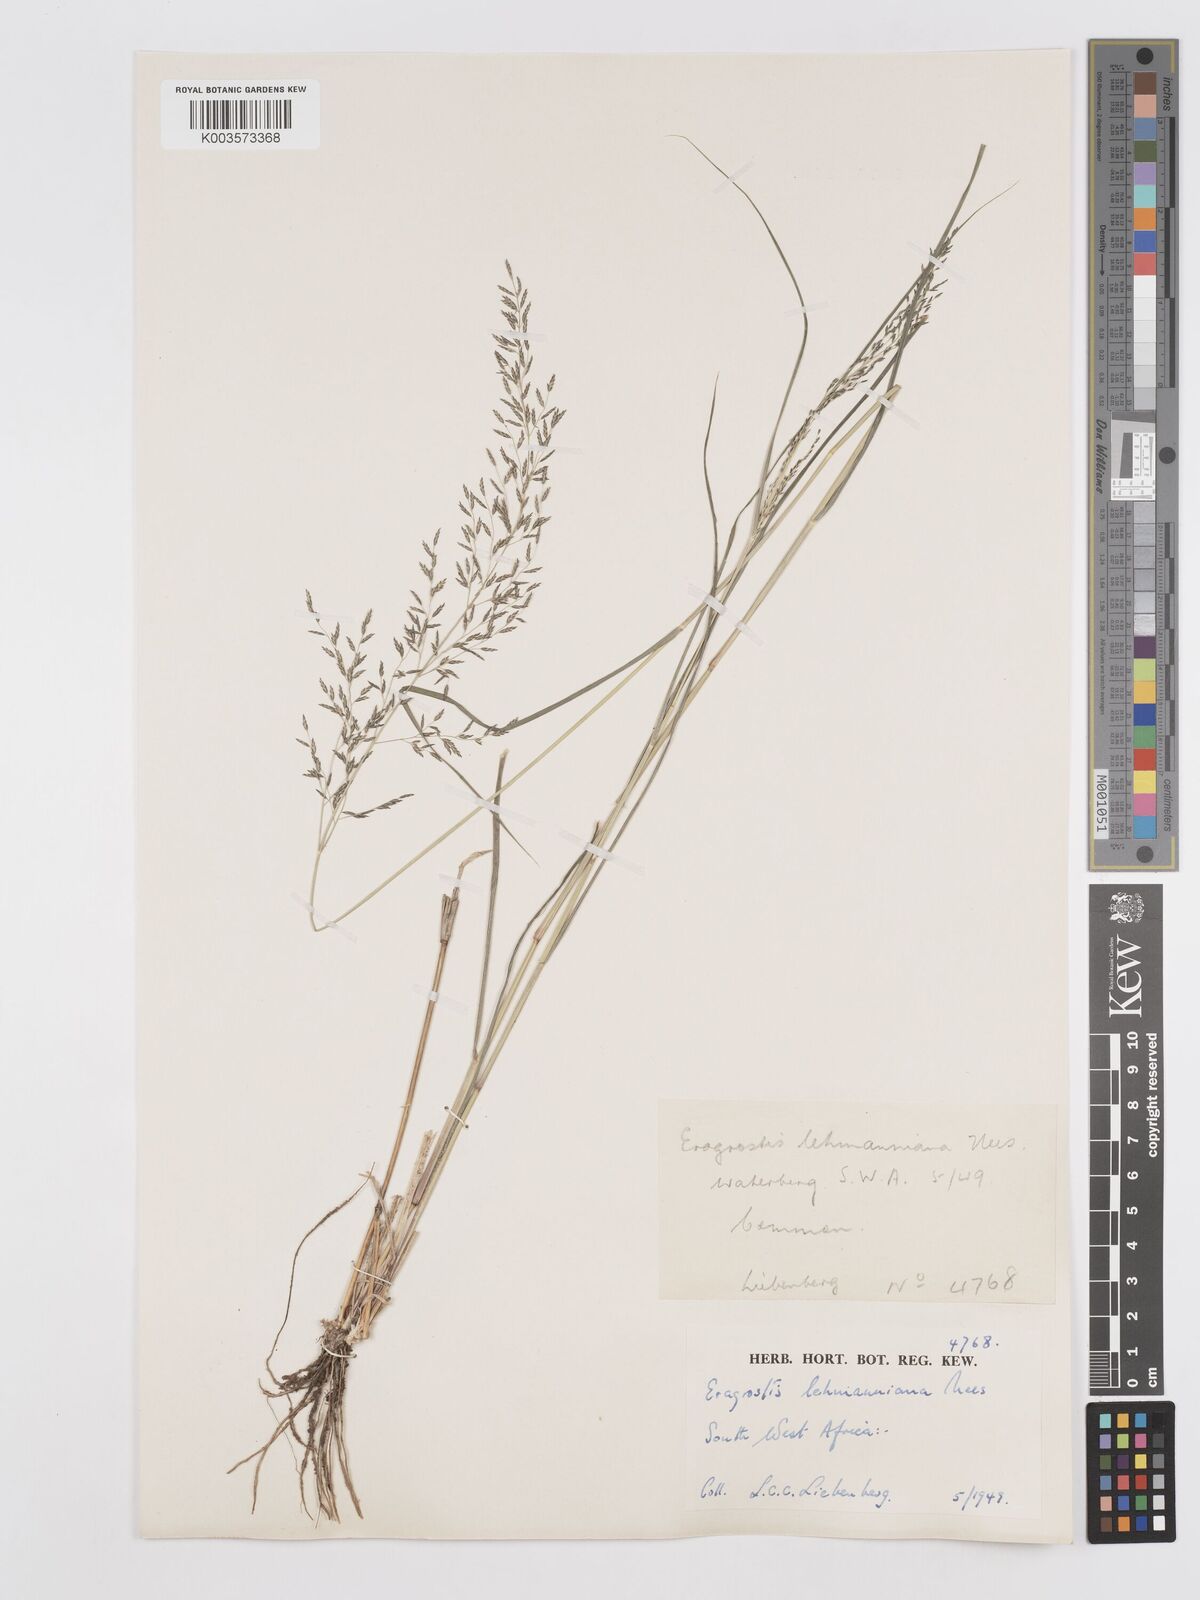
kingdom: Plantae
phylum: Tracheophyta
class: Liliopsida
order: Poales
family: Poaceae
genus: Eragrostis
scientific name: Eragrostis lehmanniana
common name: Lehmann lovegrass
